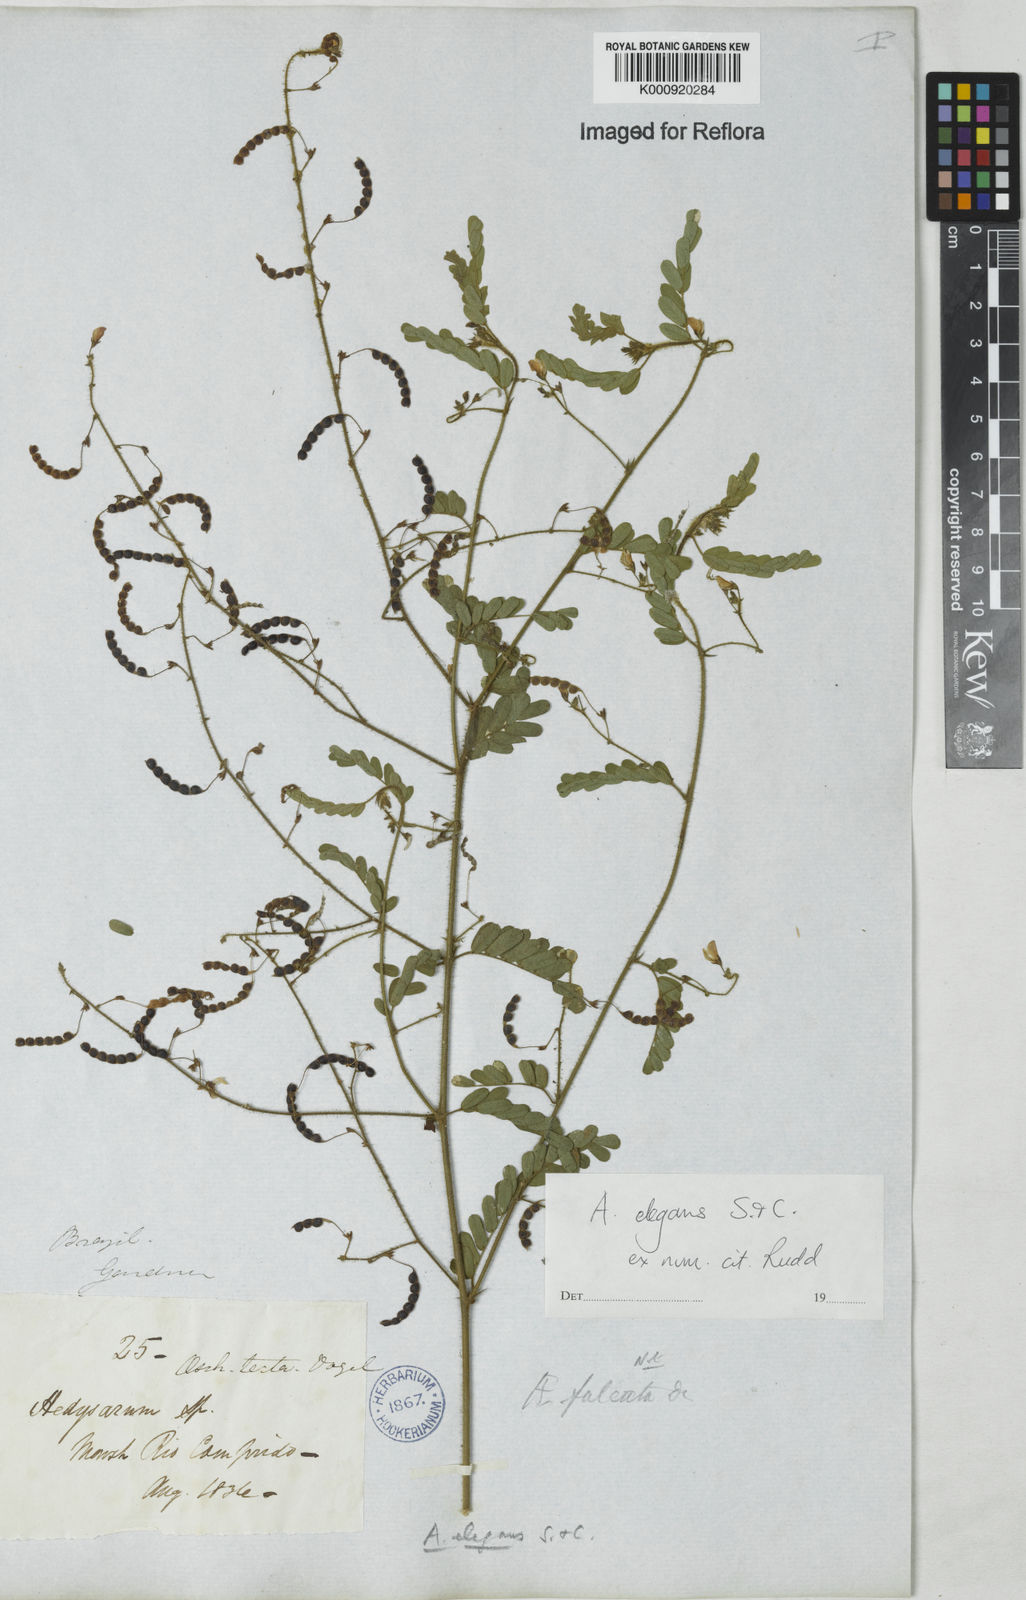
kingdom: Plantae
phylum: Tracheophyta
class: Magnoliopsida
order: Fabales
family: Fabaceae
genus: Ctenodon
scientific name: Ctenodon elegans
